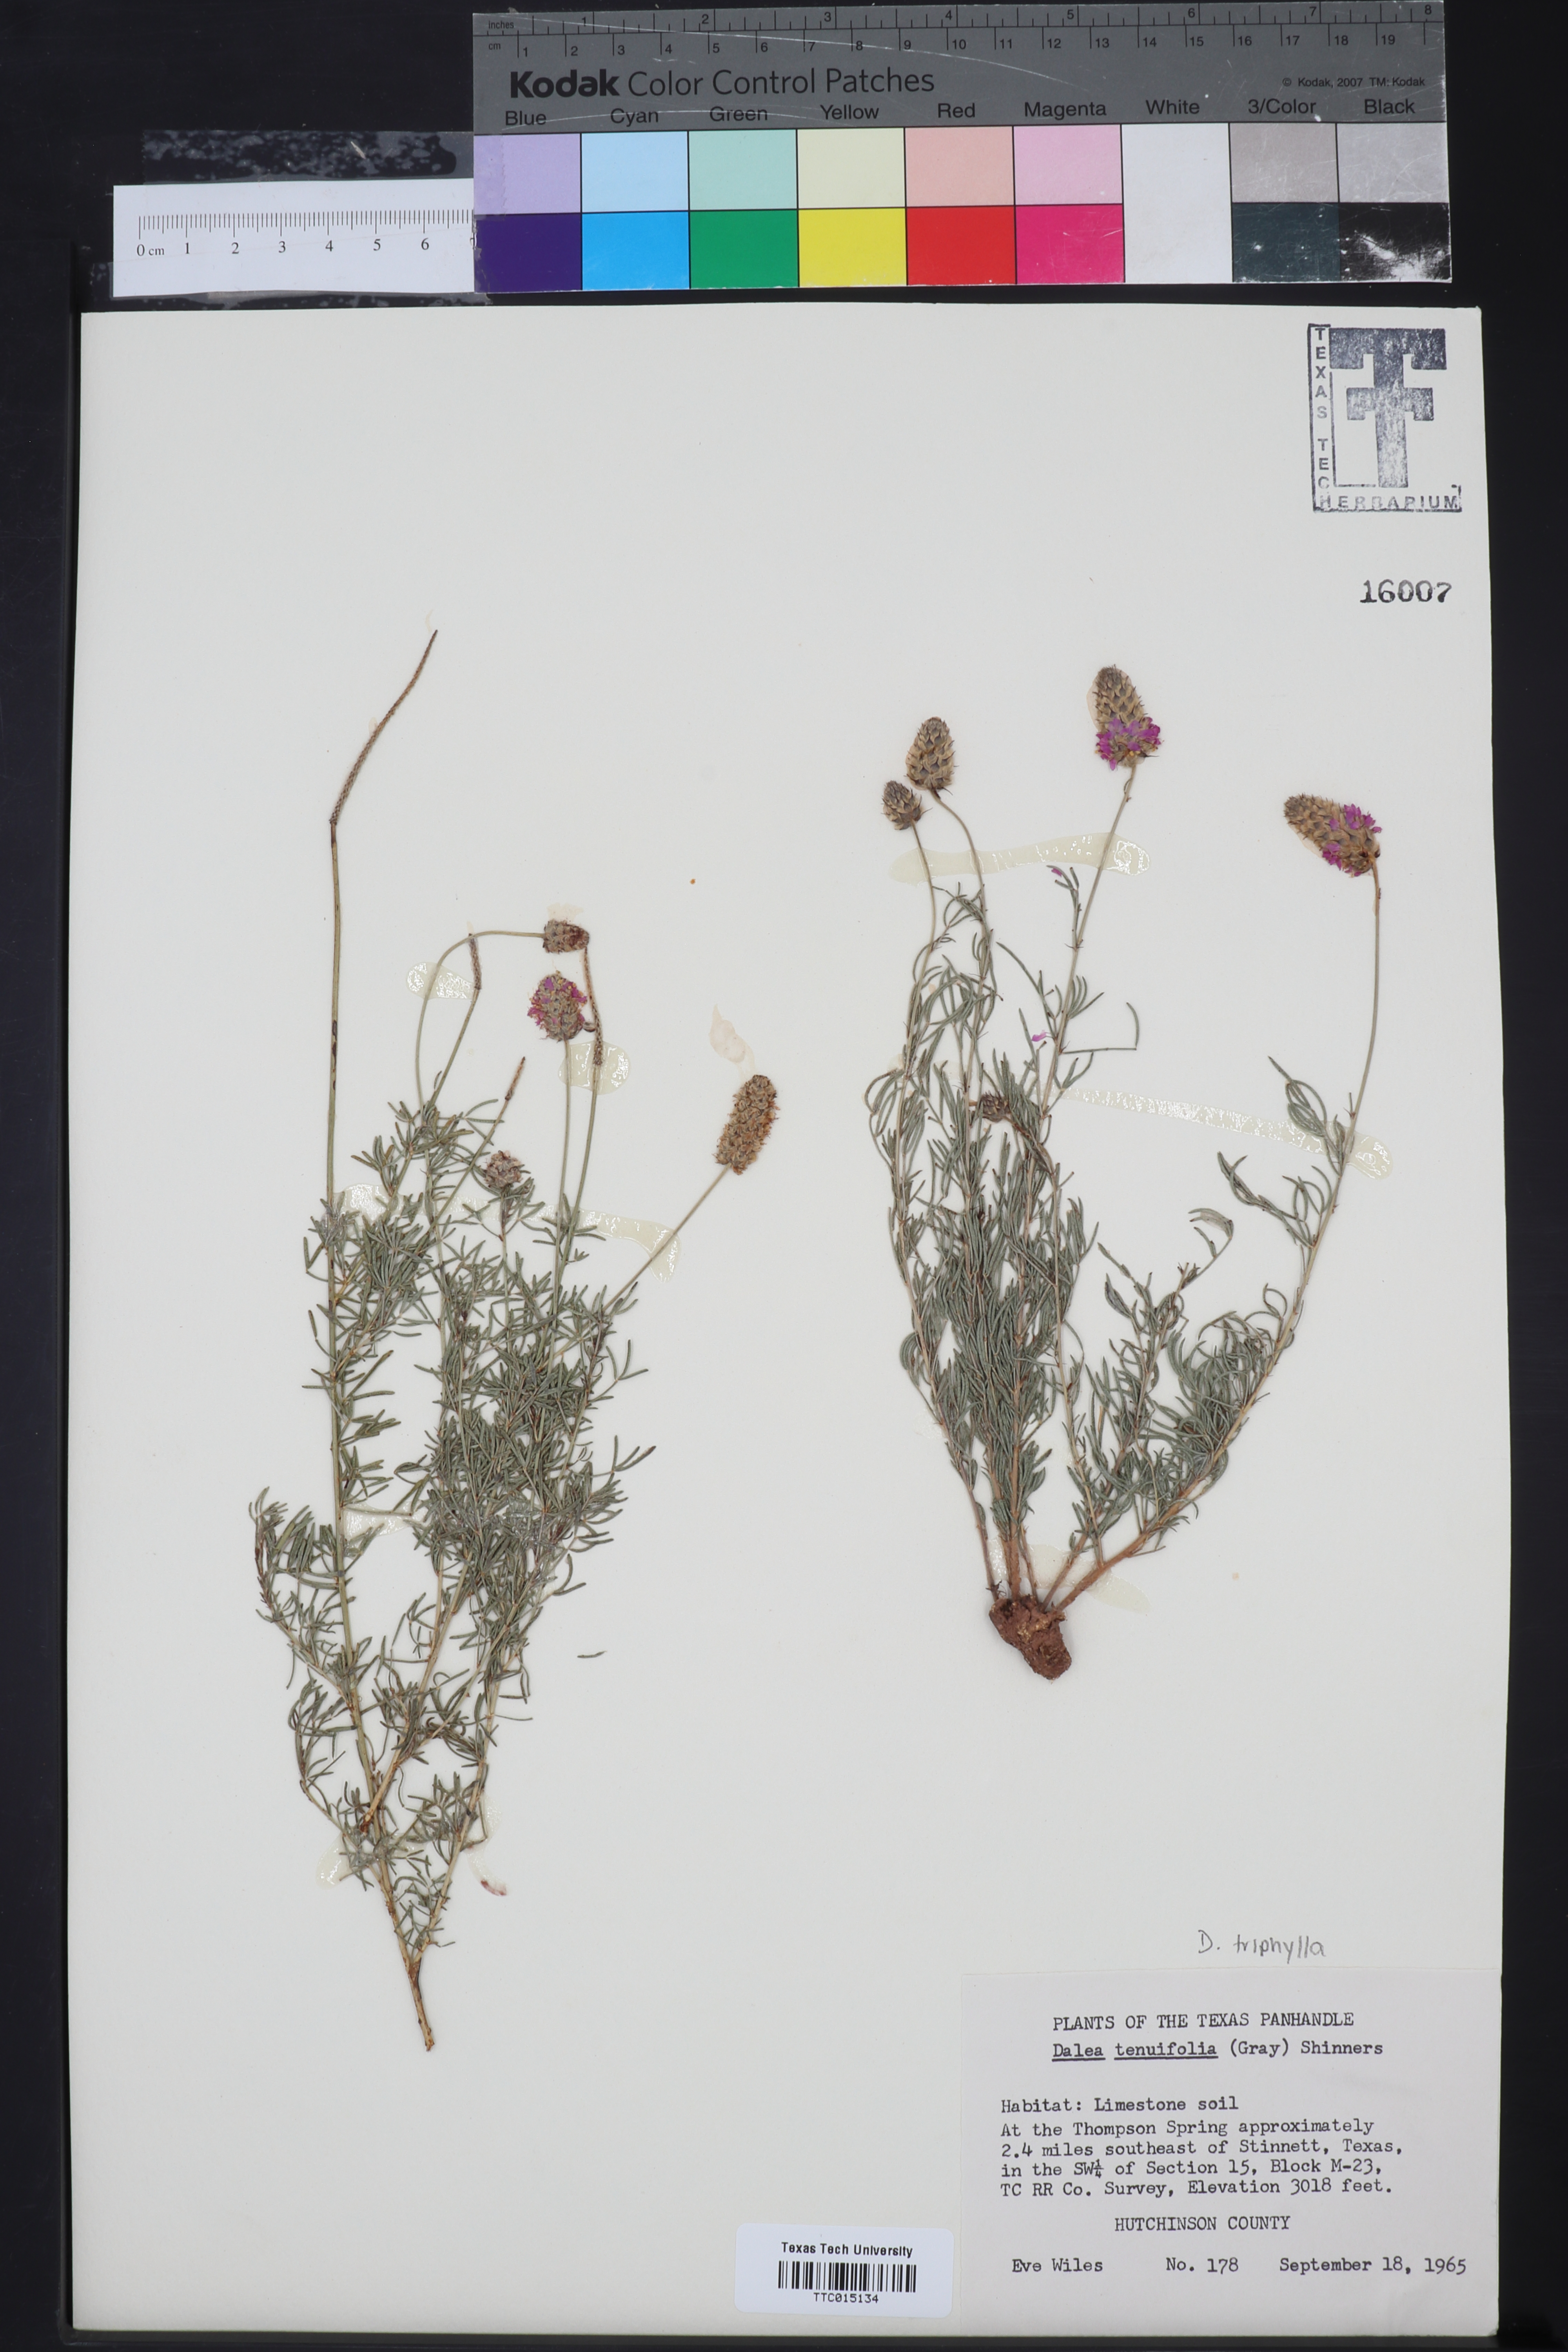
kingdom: Plantae
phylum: Tracheophyta
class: Magnoliopsida
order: Fabales
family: Fabaceae
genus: Dalea
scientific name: Dalea tenuifolia
